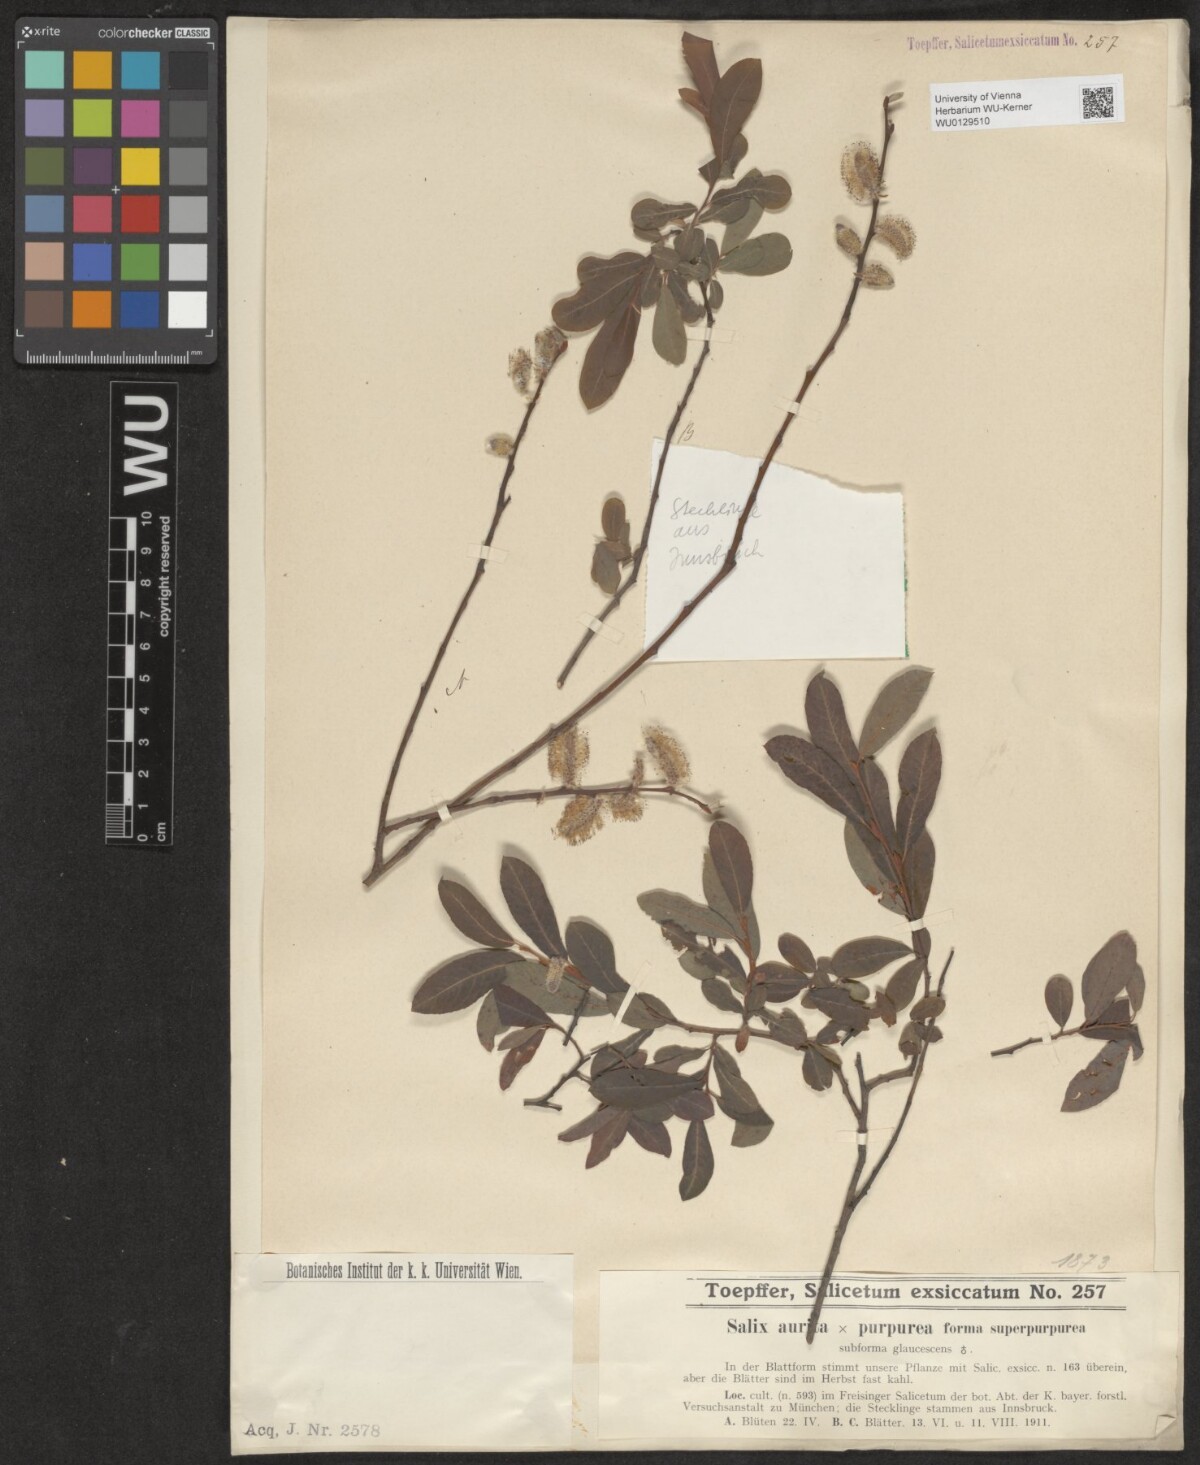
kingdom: Plantae
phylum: Tracheophyta
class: Magnoliopsida
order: Malpighiales
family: Salicaceae
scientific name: Salicaceae
